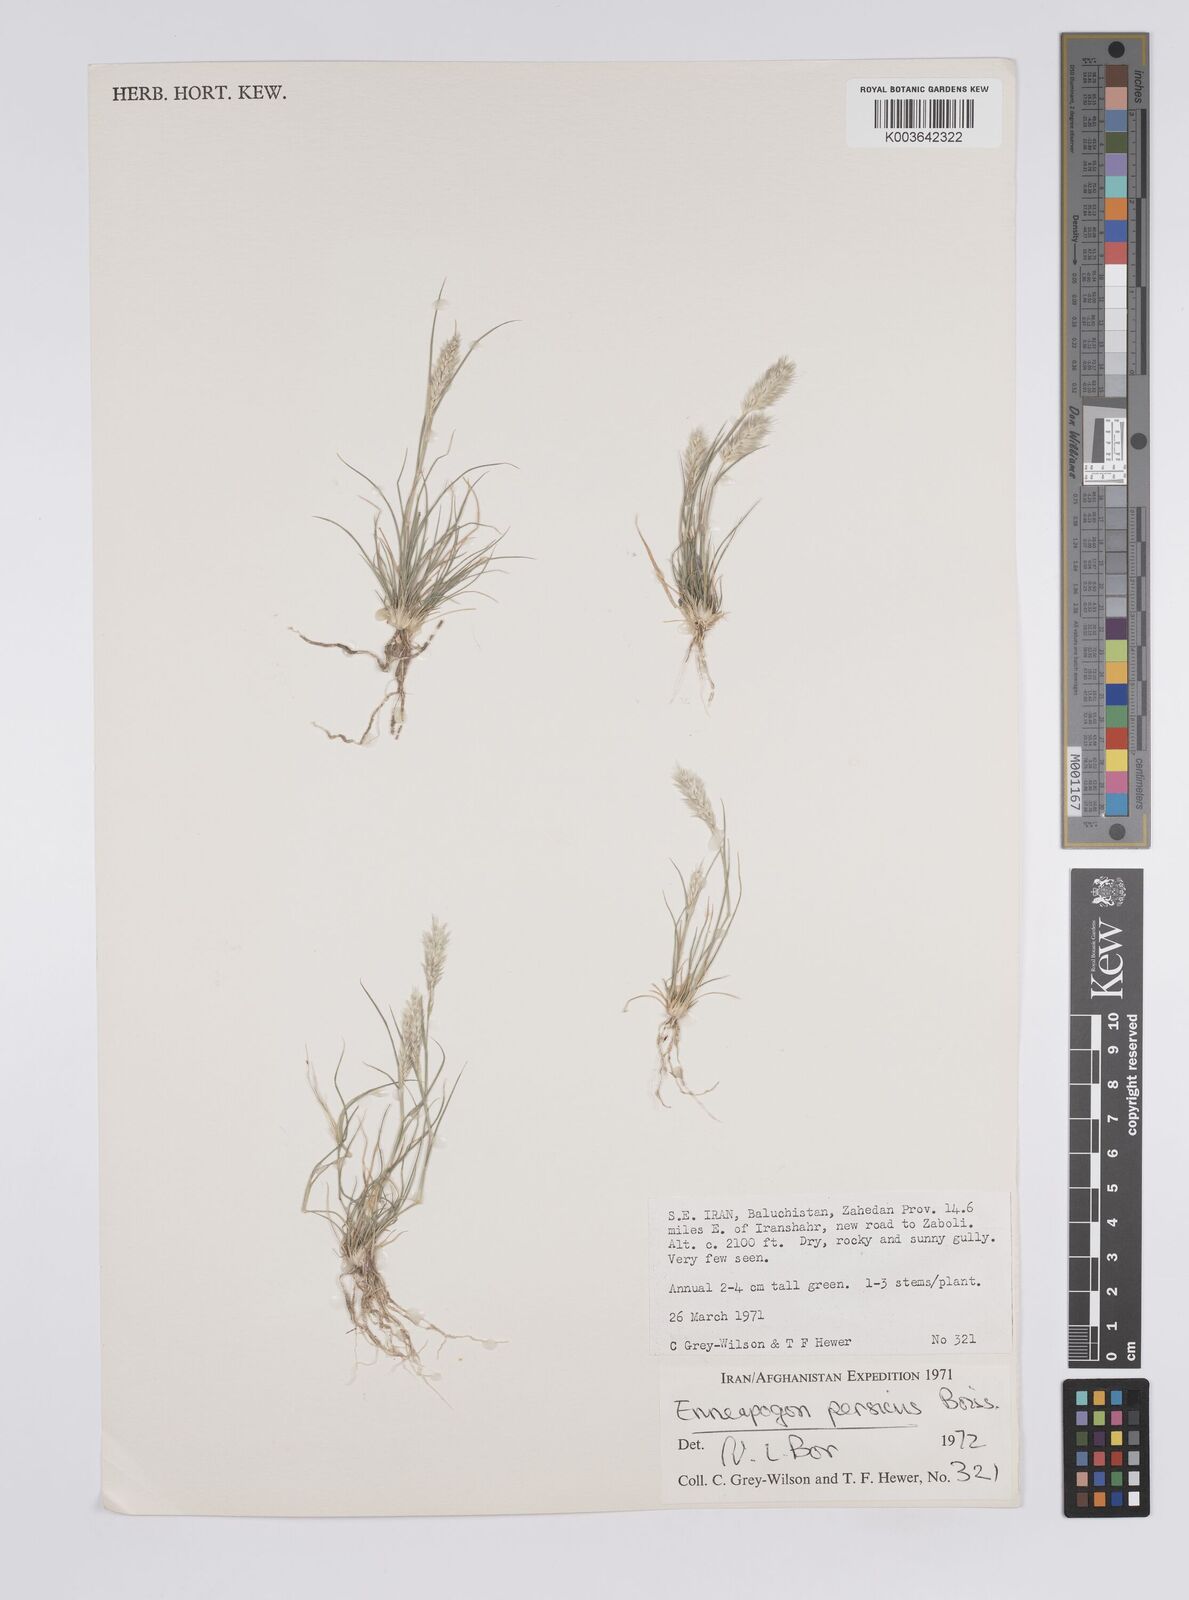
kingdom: Plantae
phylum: Tracheophyta
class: Liliopsida
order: Poales
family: Poaceae
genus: Enneapogon
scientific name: Enneapogon desvauxii
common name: Feather pappus grass
